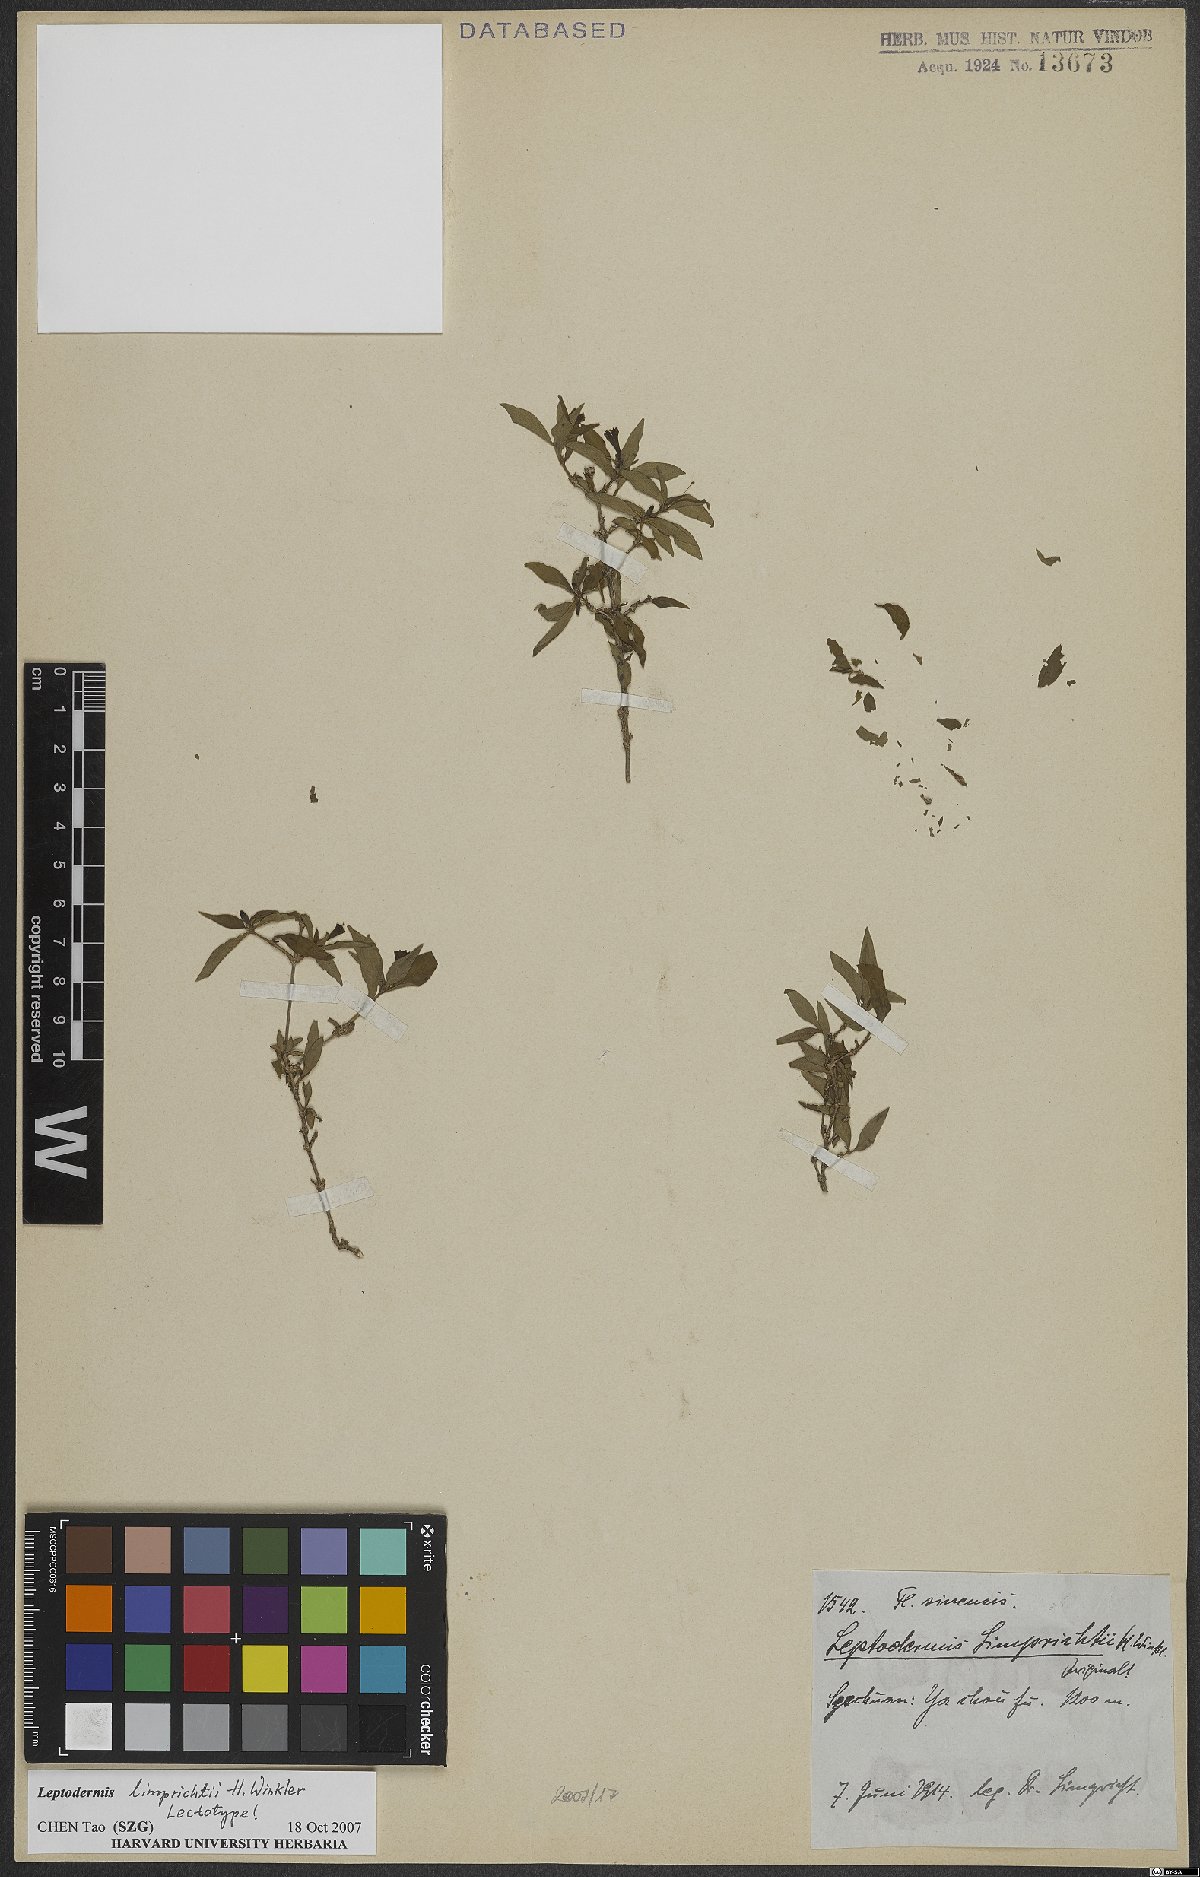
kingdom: Plantae
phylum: Tracheophyta
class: Magnoliopsida
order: Gentianales
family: Rubiaceae
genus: Leptodermis
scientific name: Leptodermis limprichtii
